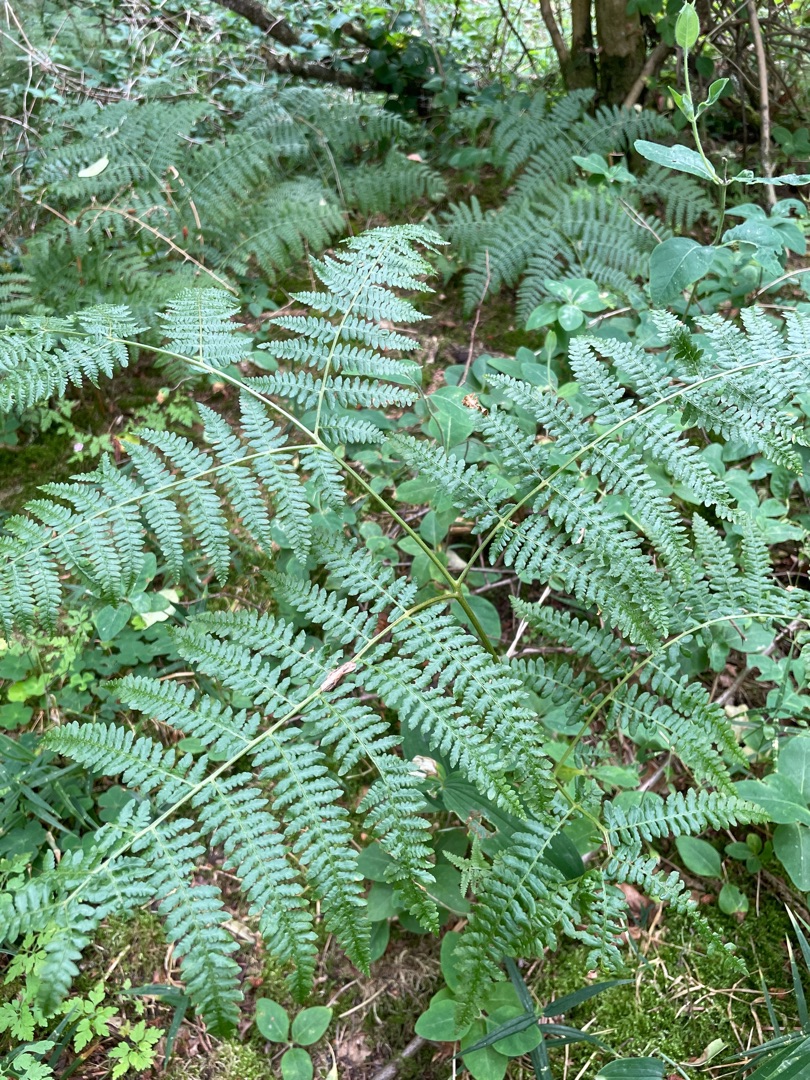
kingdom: Plantae
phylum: Tracheophyta
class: Polypodiopsida
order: Polypodiales
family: Dennstaedtiaceae
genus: Pteridium
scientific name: Pteridium aquilinum
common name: Ørnebregne
